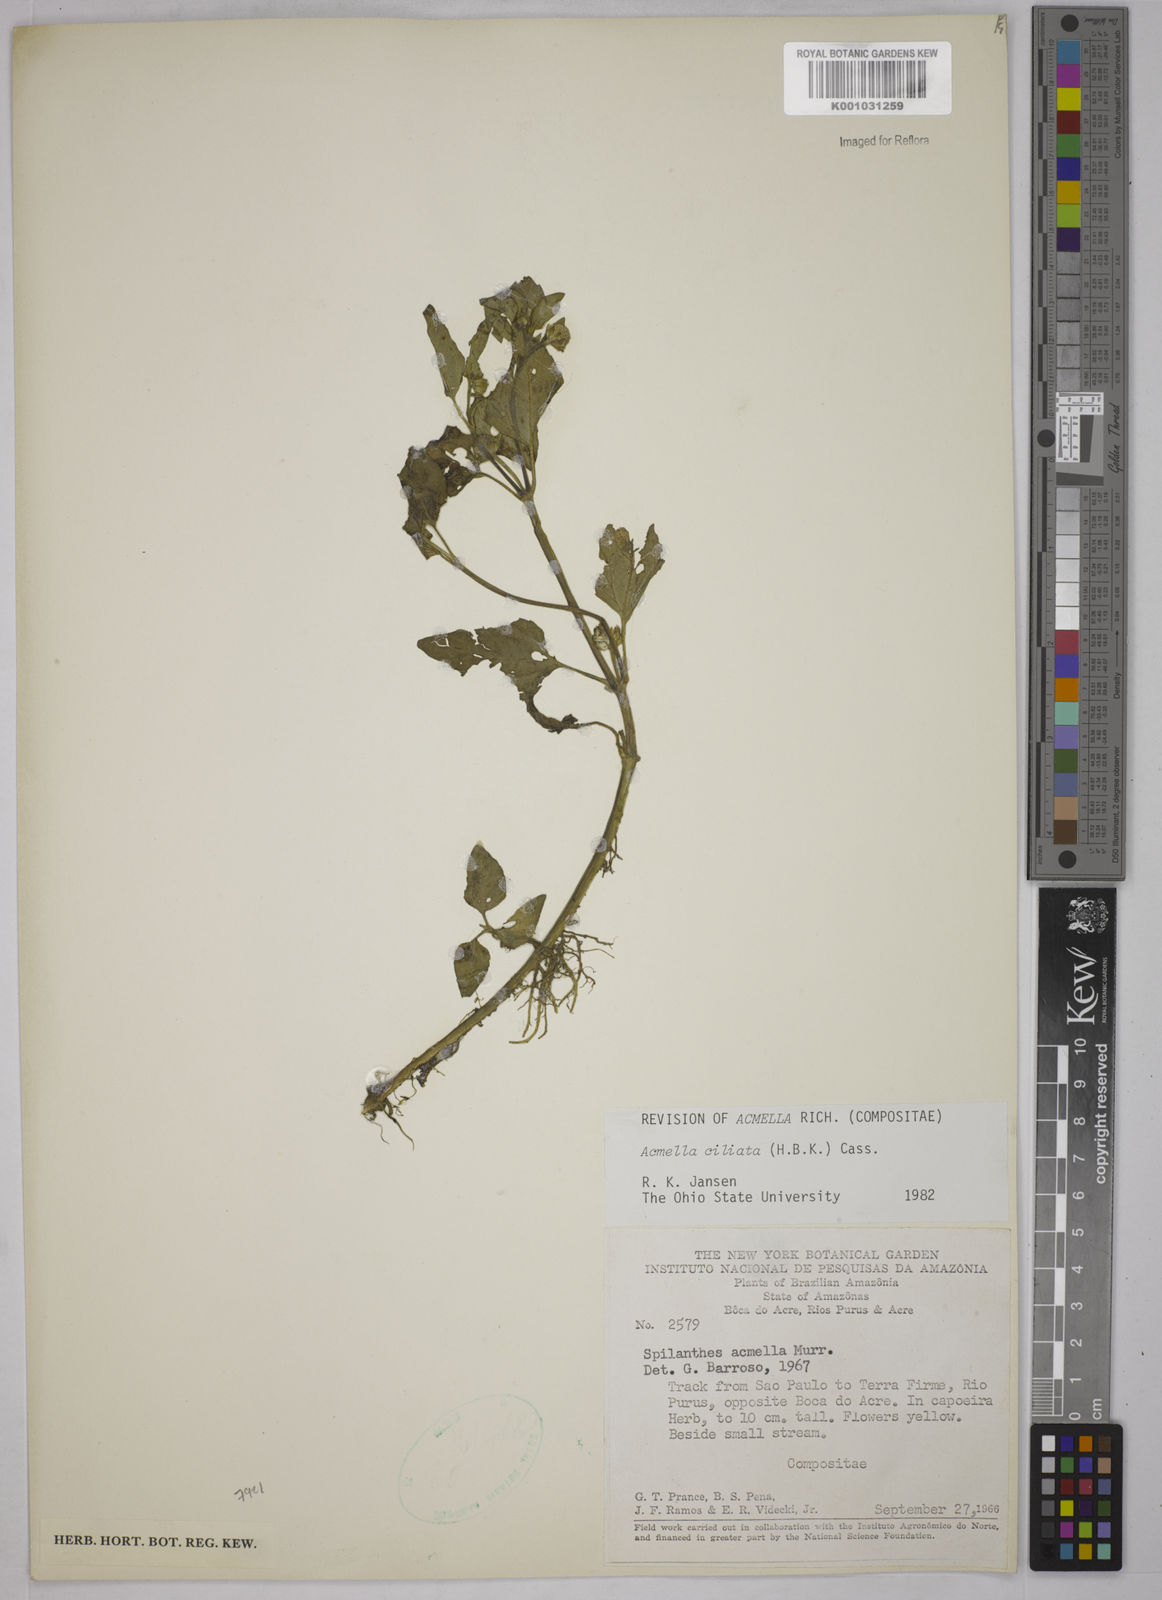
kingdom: Plantae
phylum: Tracheophyta
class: Magnoliopsida
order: Asterales
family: Asteraceae
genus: Acmella
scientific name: Acmella ciliata
